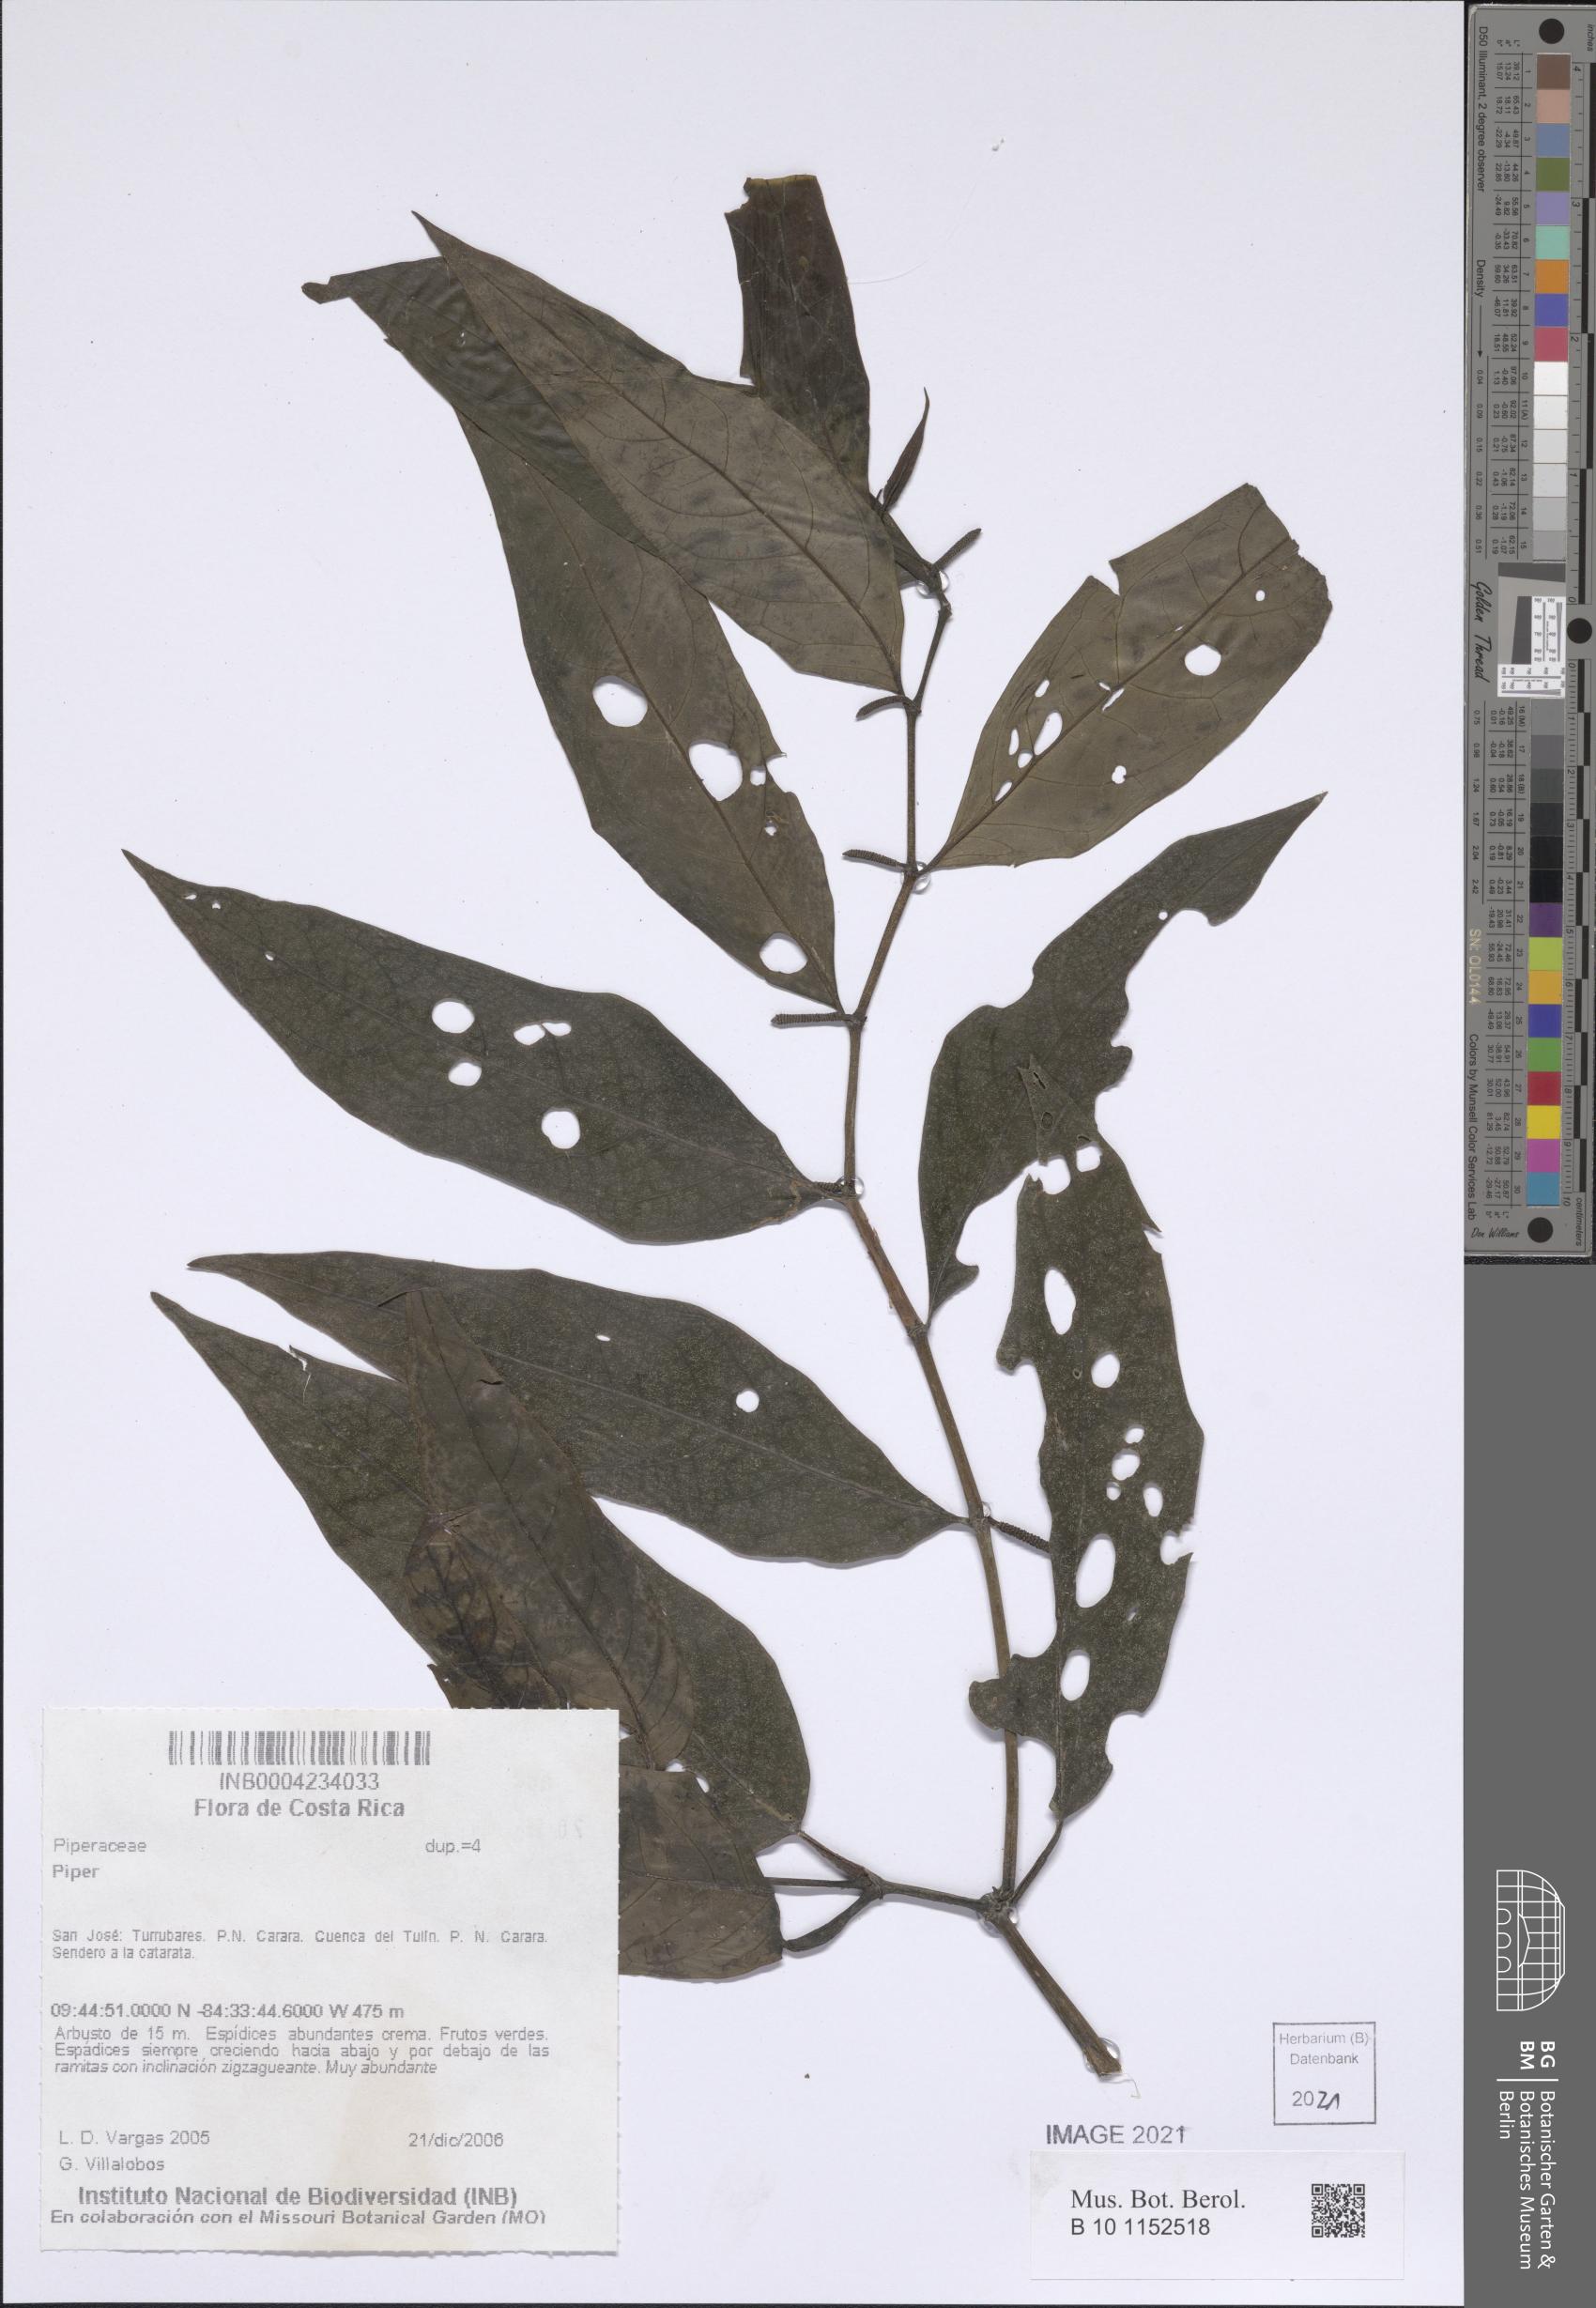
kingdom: Plantae
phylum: Tracheophyta
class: Magnoliopsida
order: Piperales
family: Piperaceae
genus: Piper
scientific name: Piper
